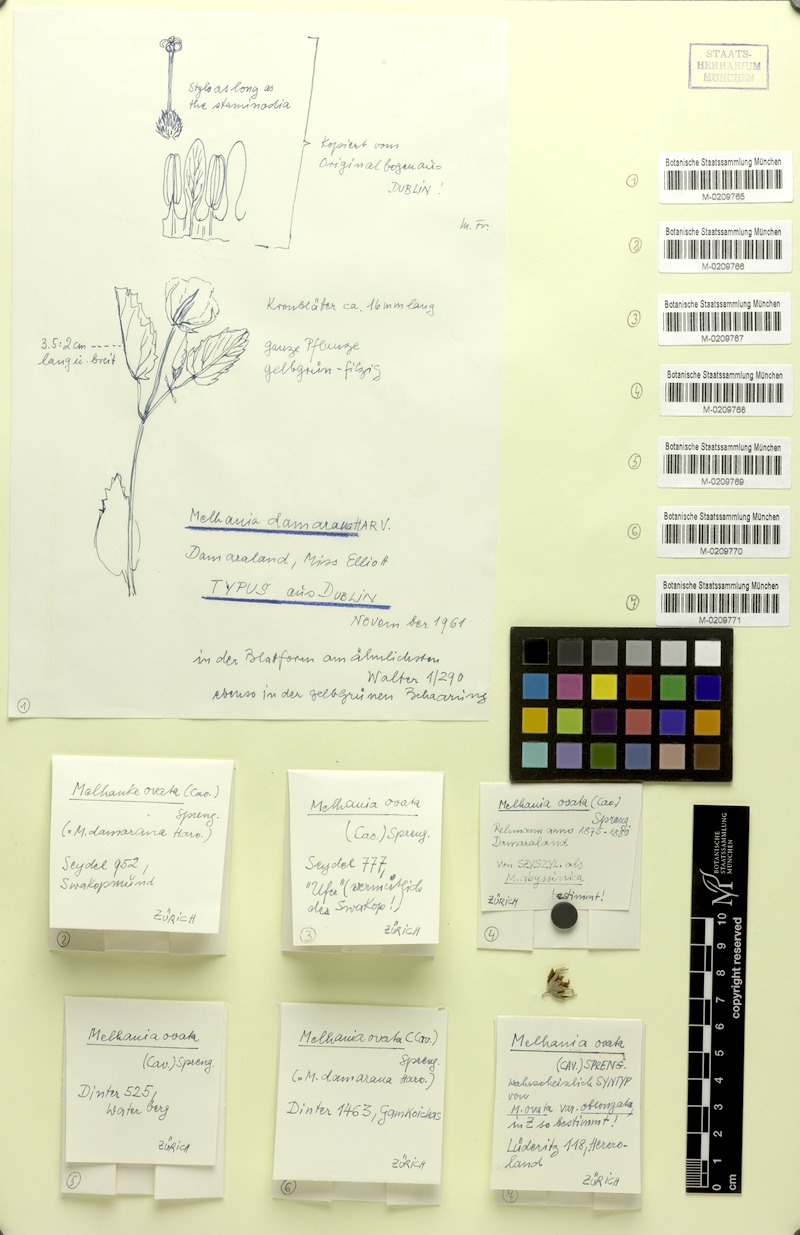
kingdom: Plantae
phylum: Tracheophyta
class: Magnoliopsida
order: Malvales
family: Malvaceae
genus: Melhania
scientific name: Melhania ovata
